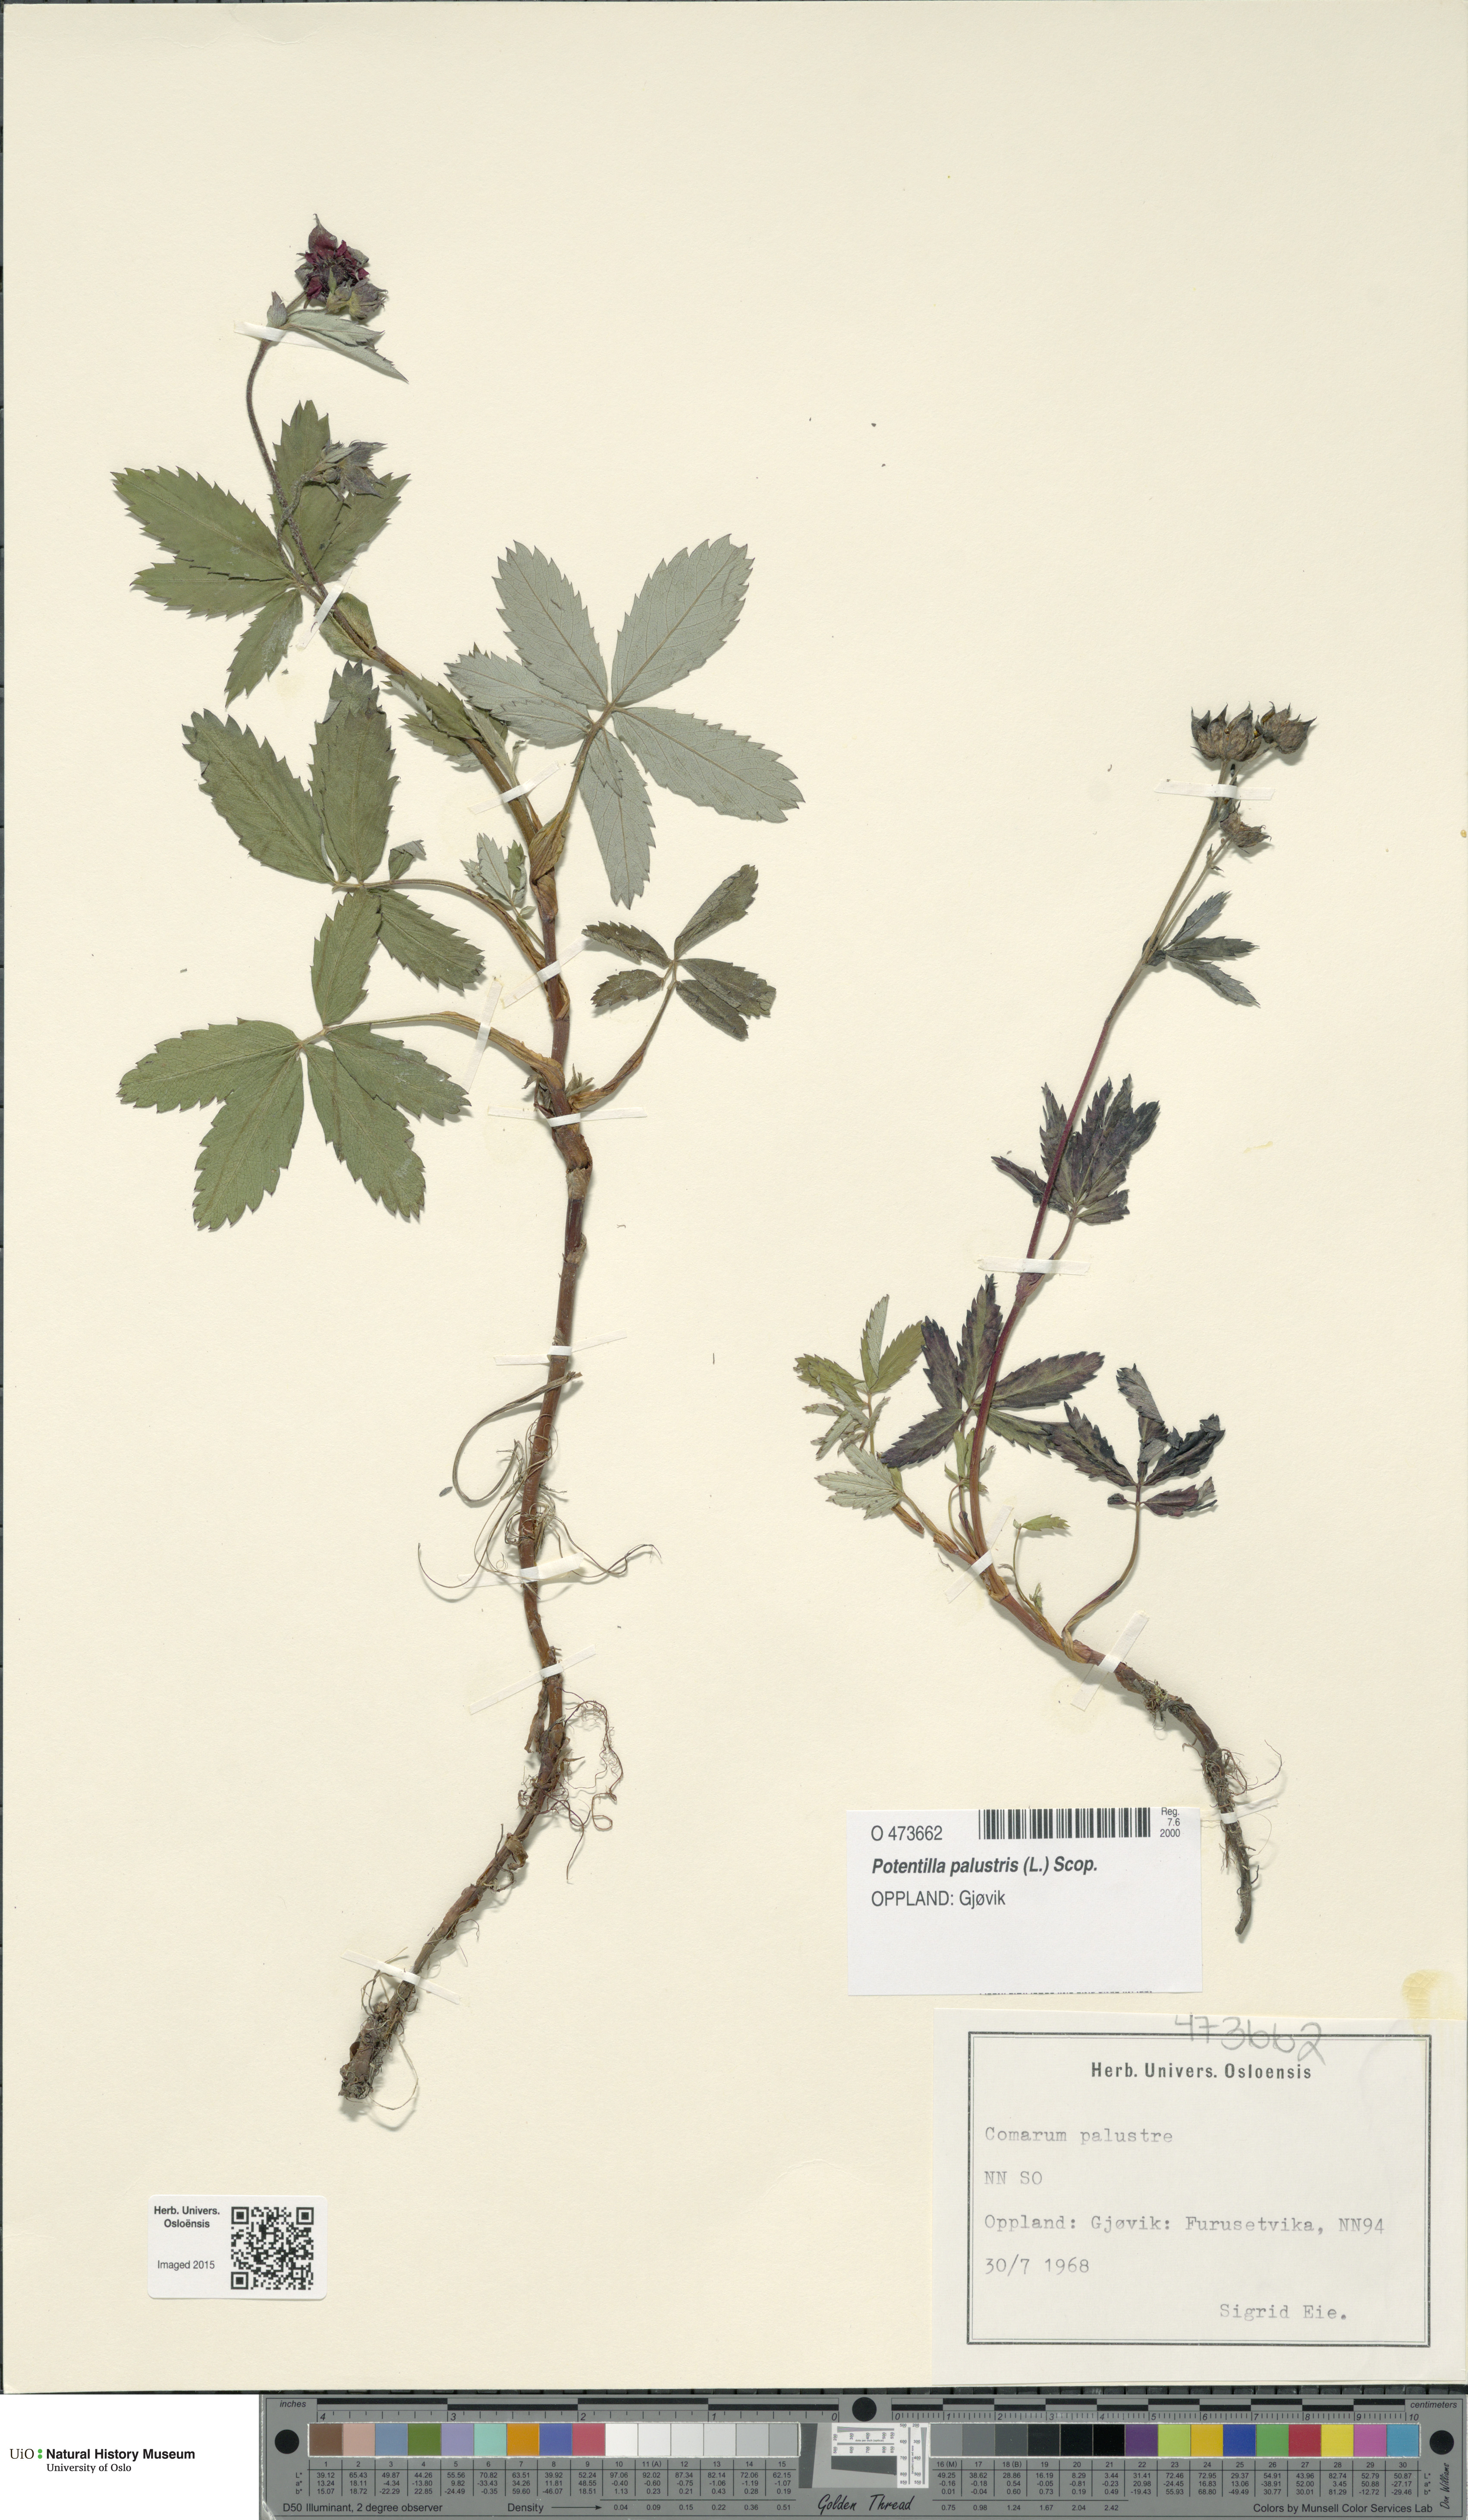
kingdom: Plantae
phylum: Tracheophyta
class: Magnoliopsida
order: Rosales
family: Rosaceae
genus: Comarum
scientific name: Comarum palustre
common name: Marsh cinquefoil
